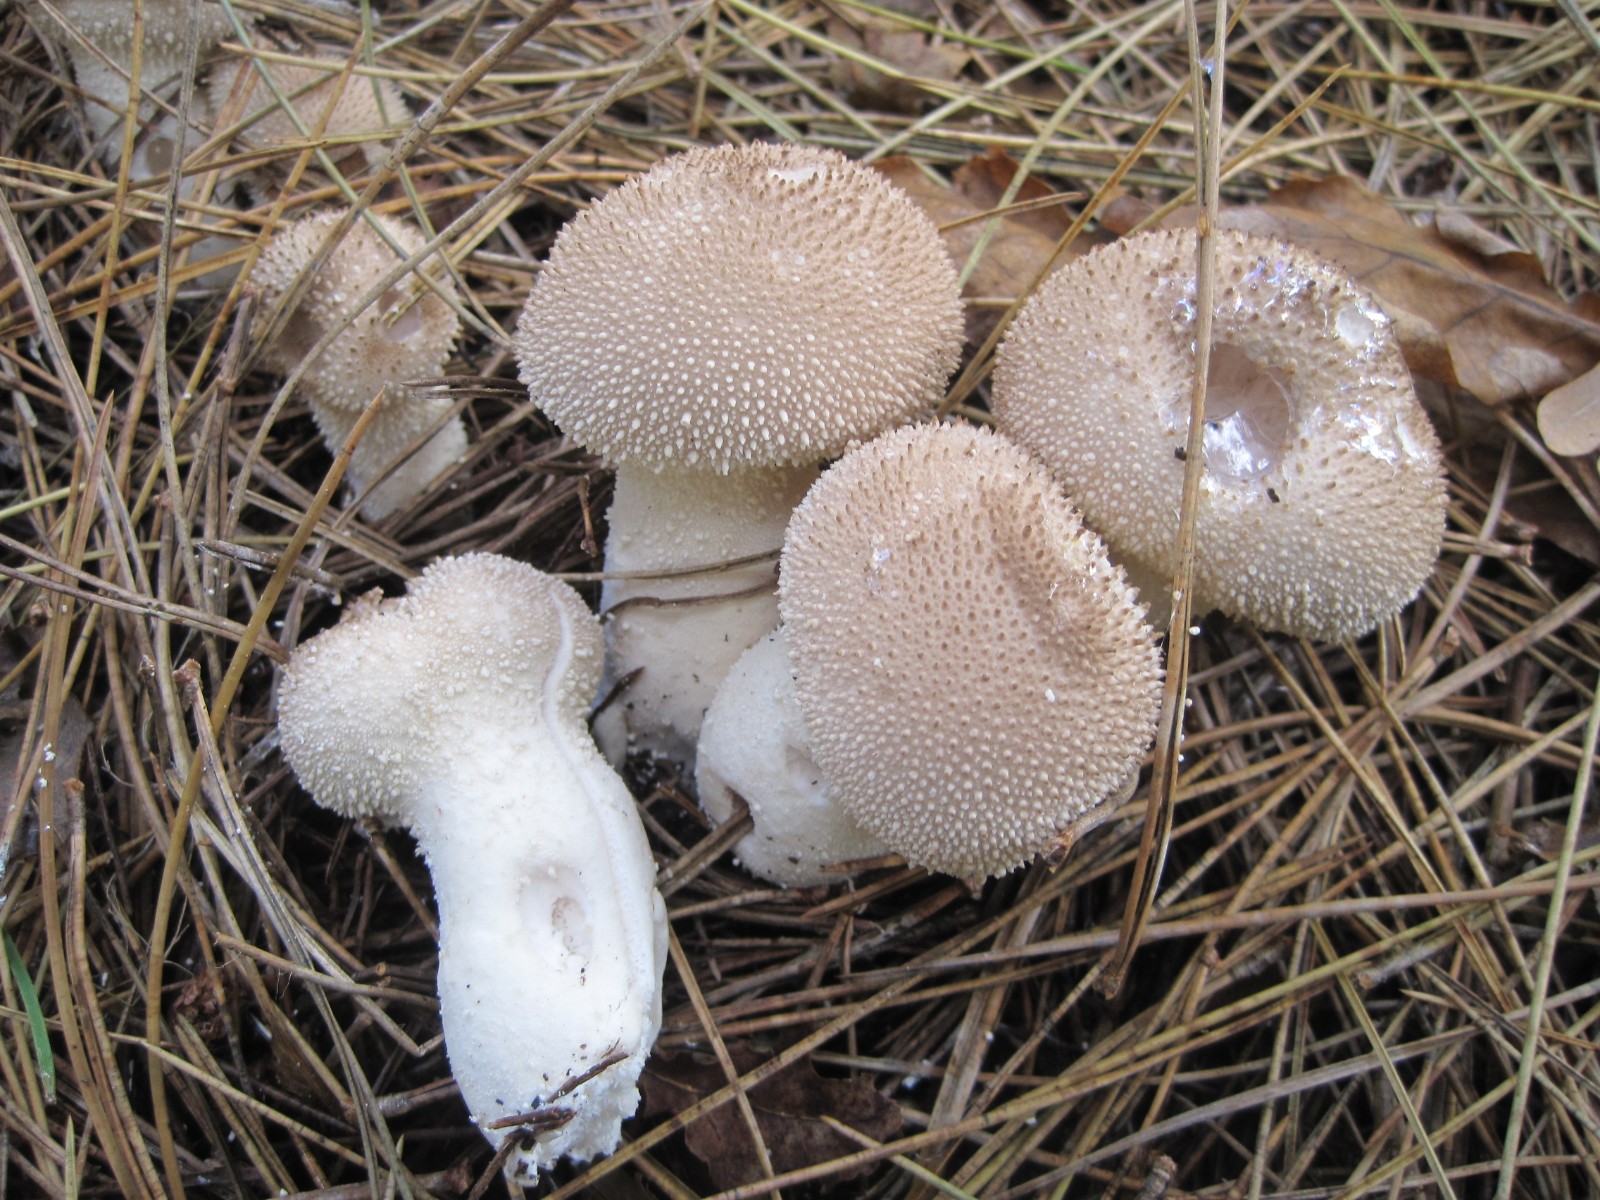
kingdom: Fungi
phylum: Basidiomycota
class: Agaricomycetes
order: Agaricales
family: Lycoperdaceae
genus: Lycoperdon
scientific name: Lycoperdon perlatum
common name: krystal-støvbold
